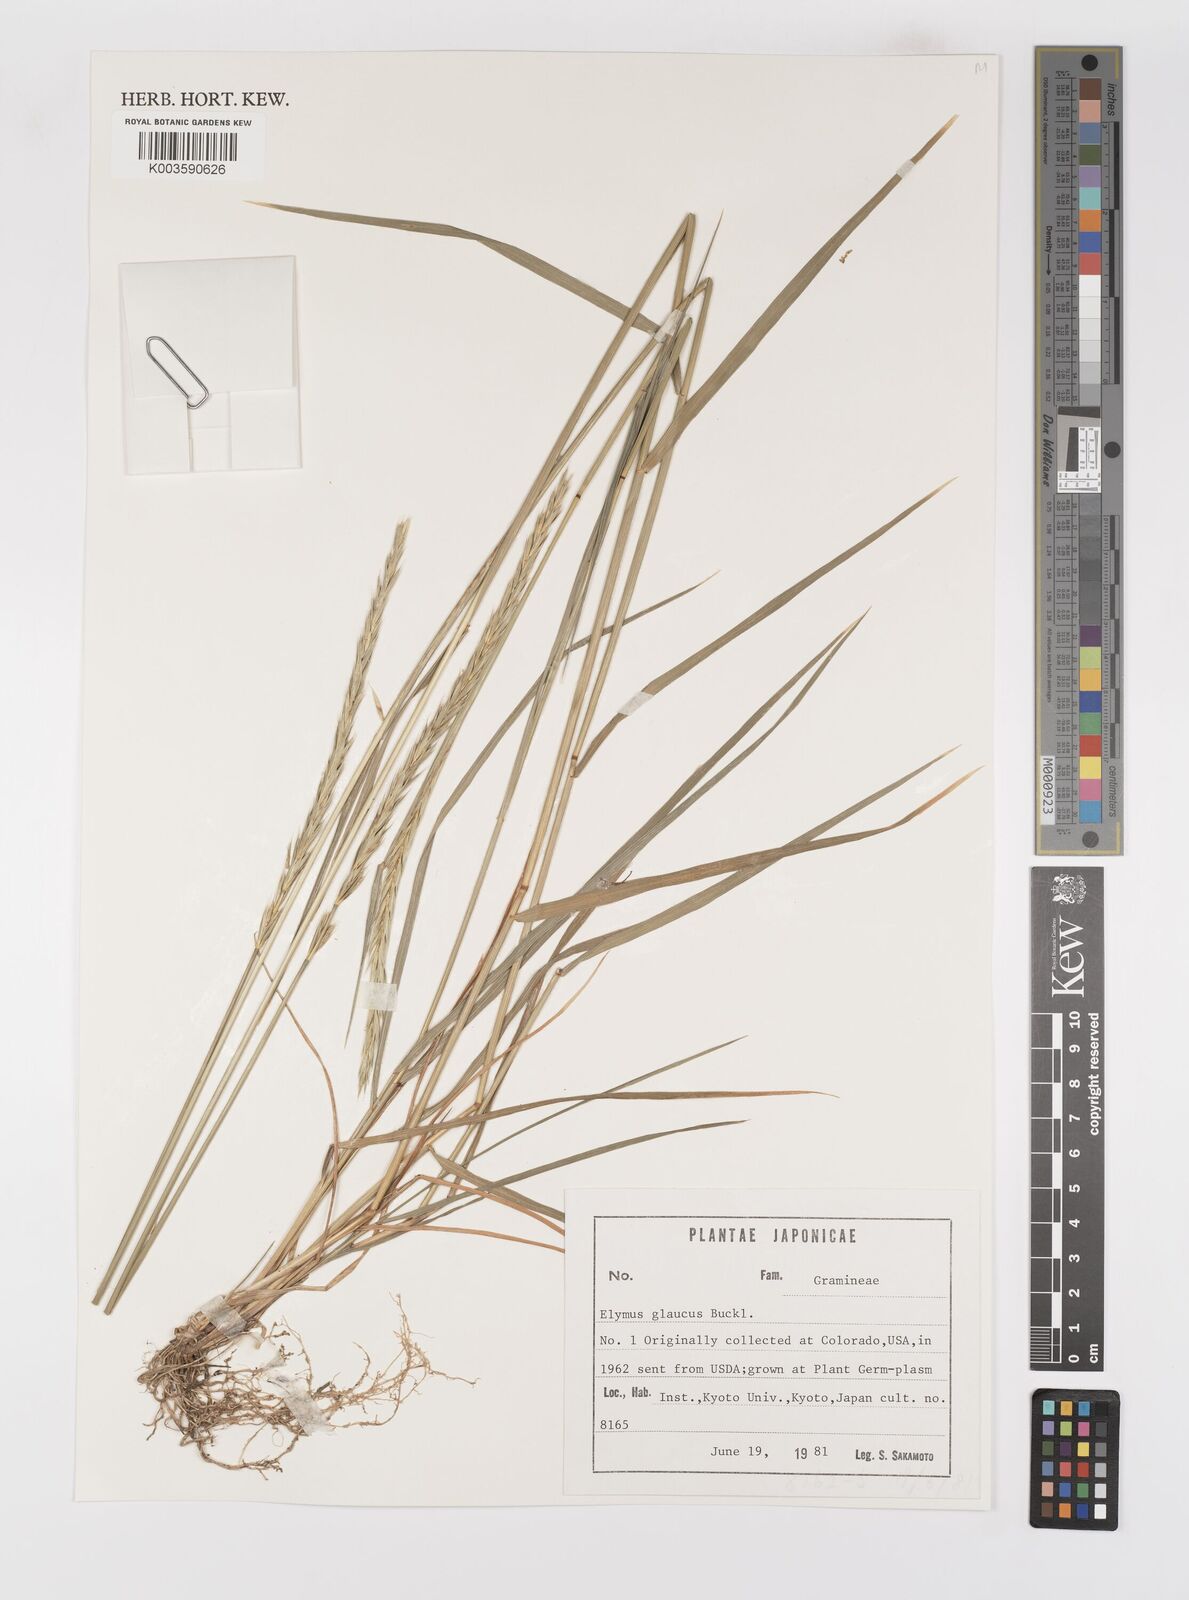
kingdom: Plantae
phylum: Tracheophyta
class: Liliopsida
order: Poales
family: Poaceae
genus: Elymus
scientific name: Elymus glaucus
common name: Blue wild rye
